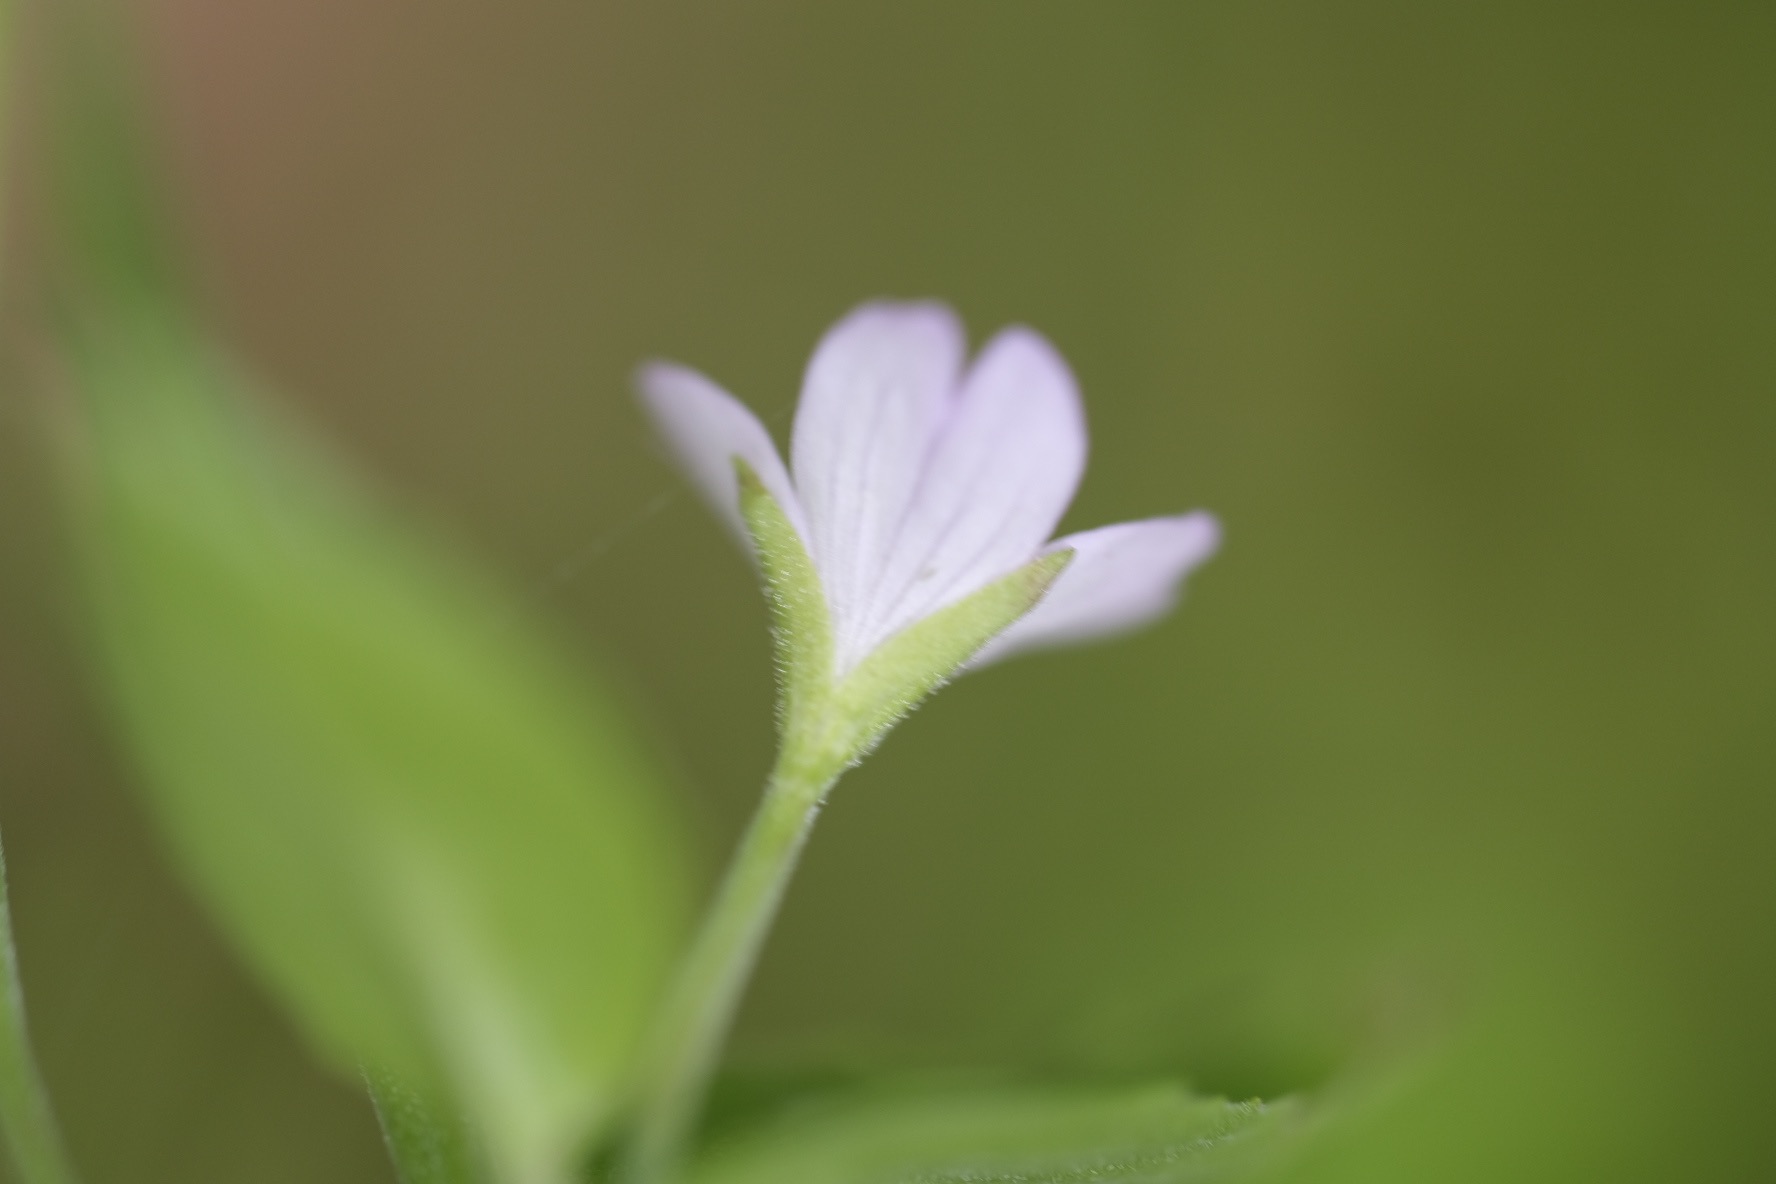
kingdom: Plantae
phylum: Tracheophyta
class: Magnoliopsida
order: Myrtales
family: Onagraceae
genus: Epilobium
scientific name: Epilobium montanum
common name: Glat dueurt
